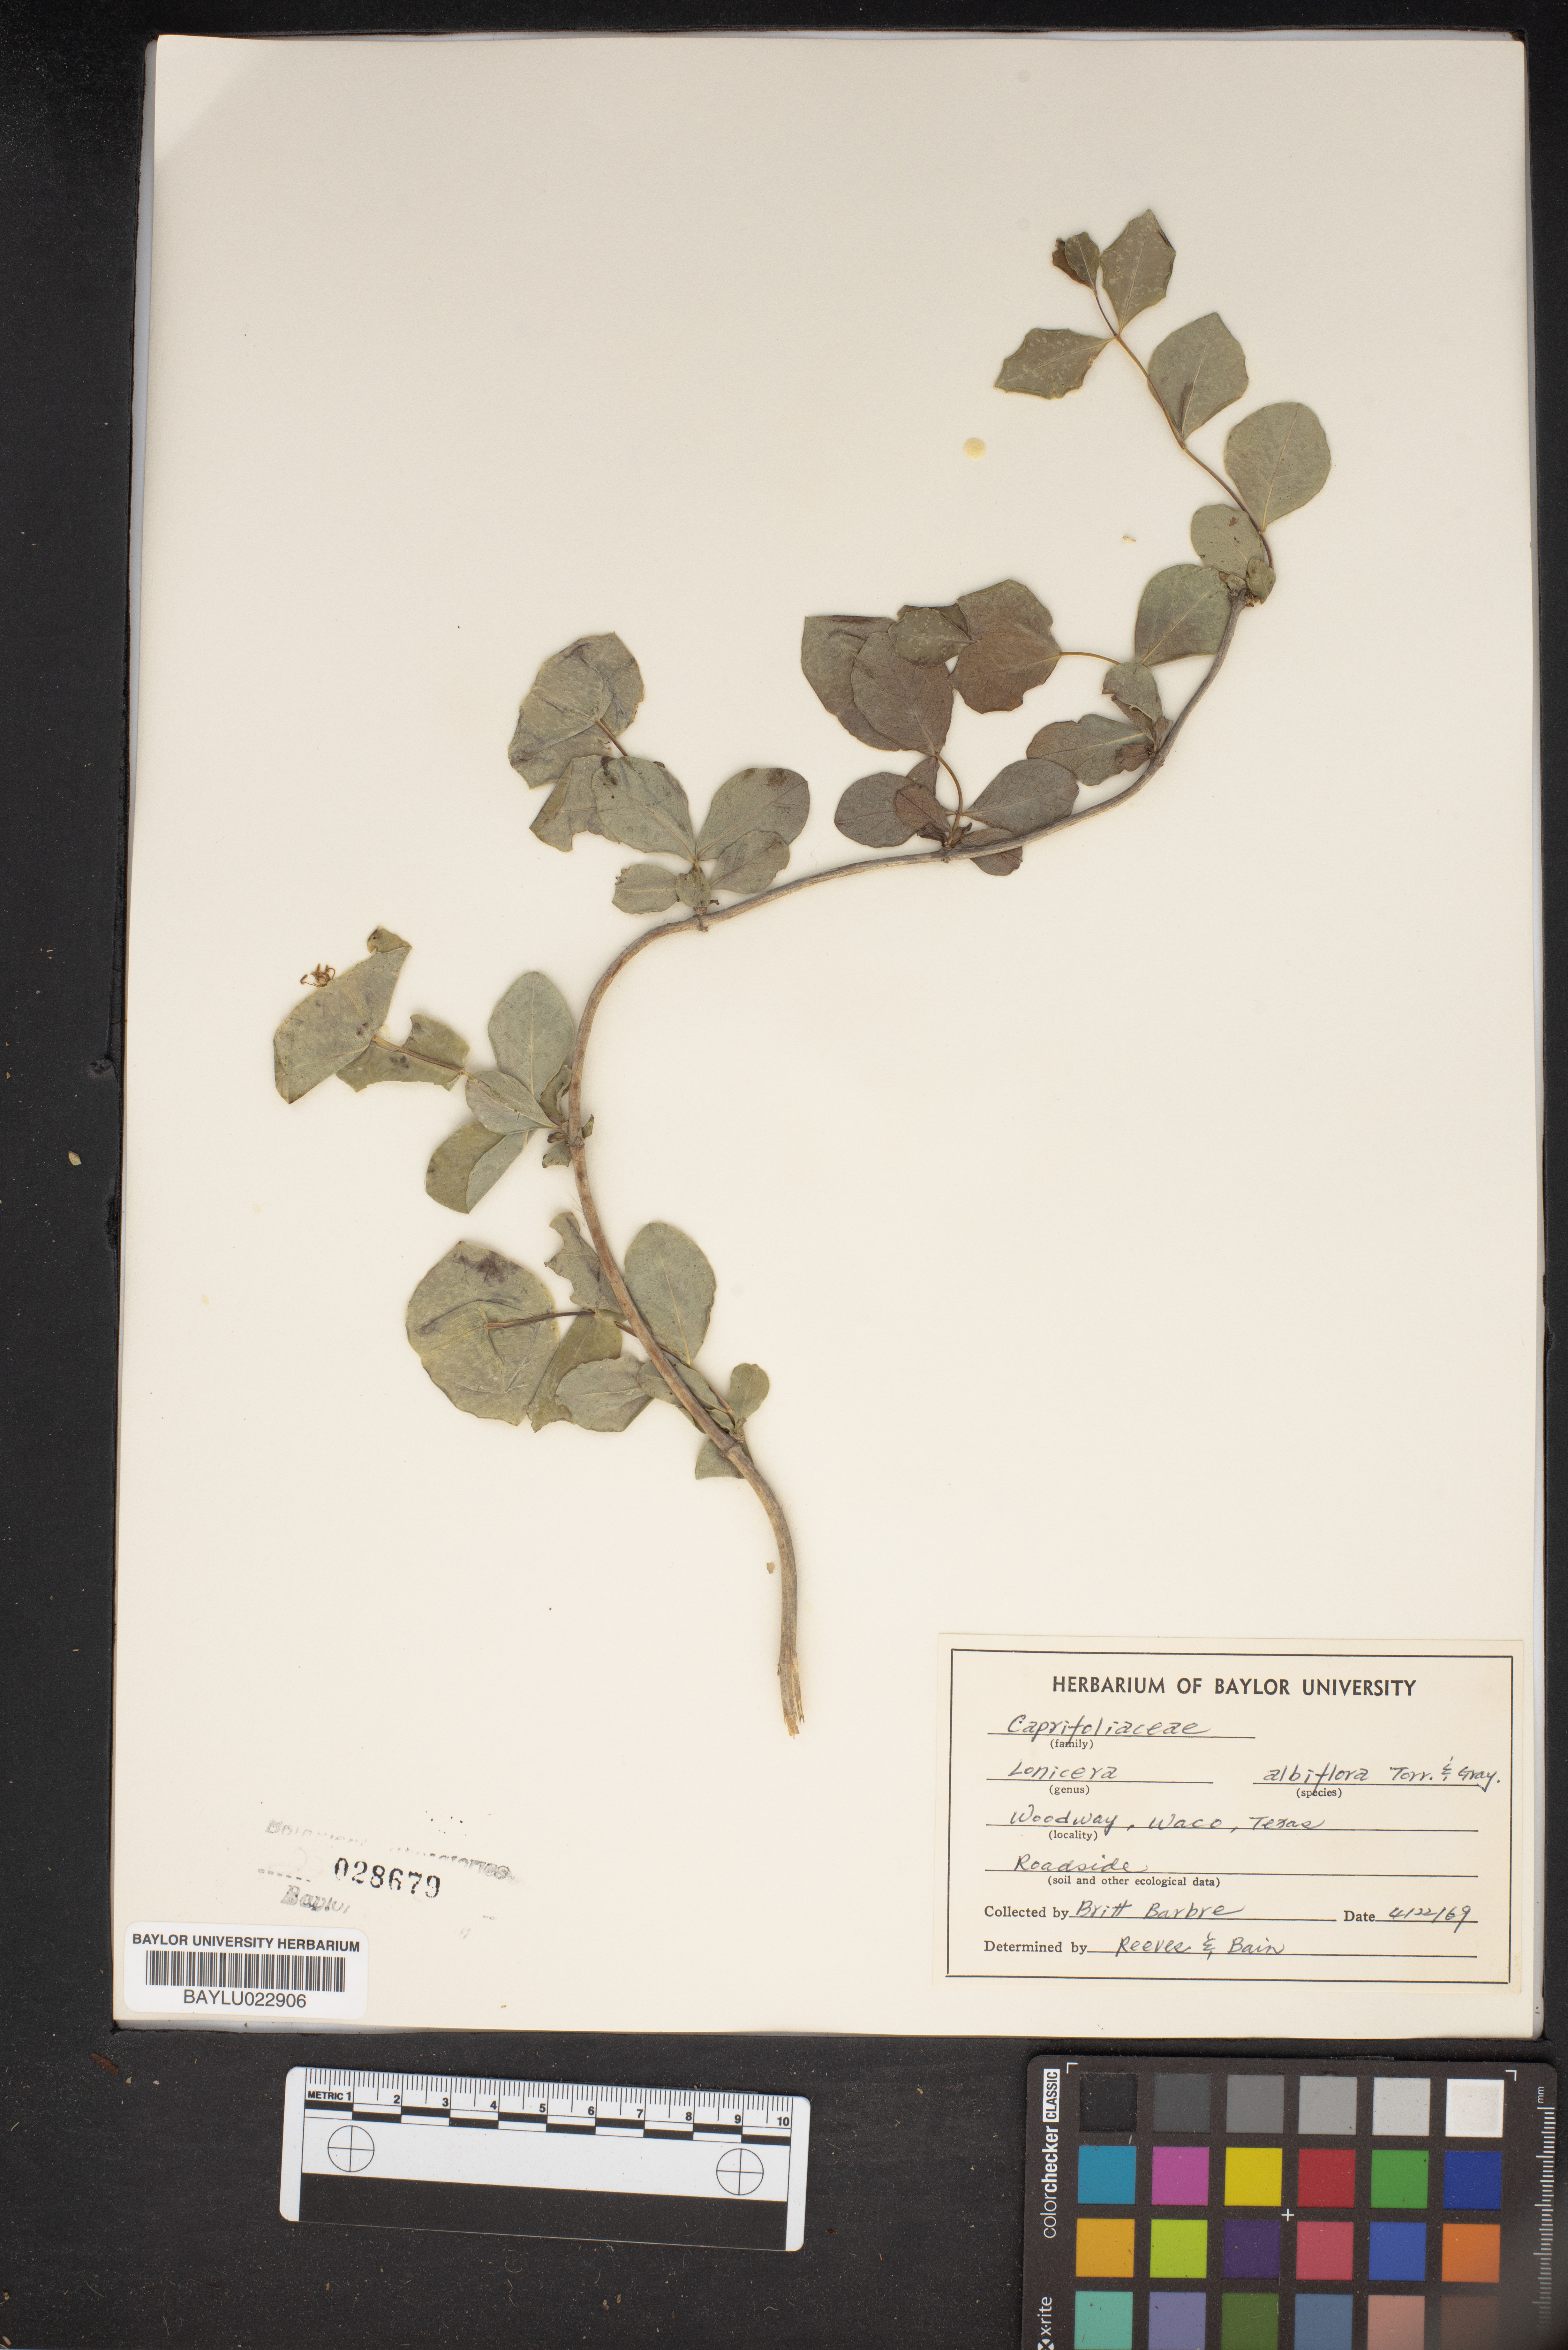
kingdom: Plantae
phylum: Tracheophyta
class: Magnoliopsida
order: Dipsacales
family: Caprifoliaceae
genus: Lonicera
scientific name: Lonicera albiflora
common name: White honeysuckle
